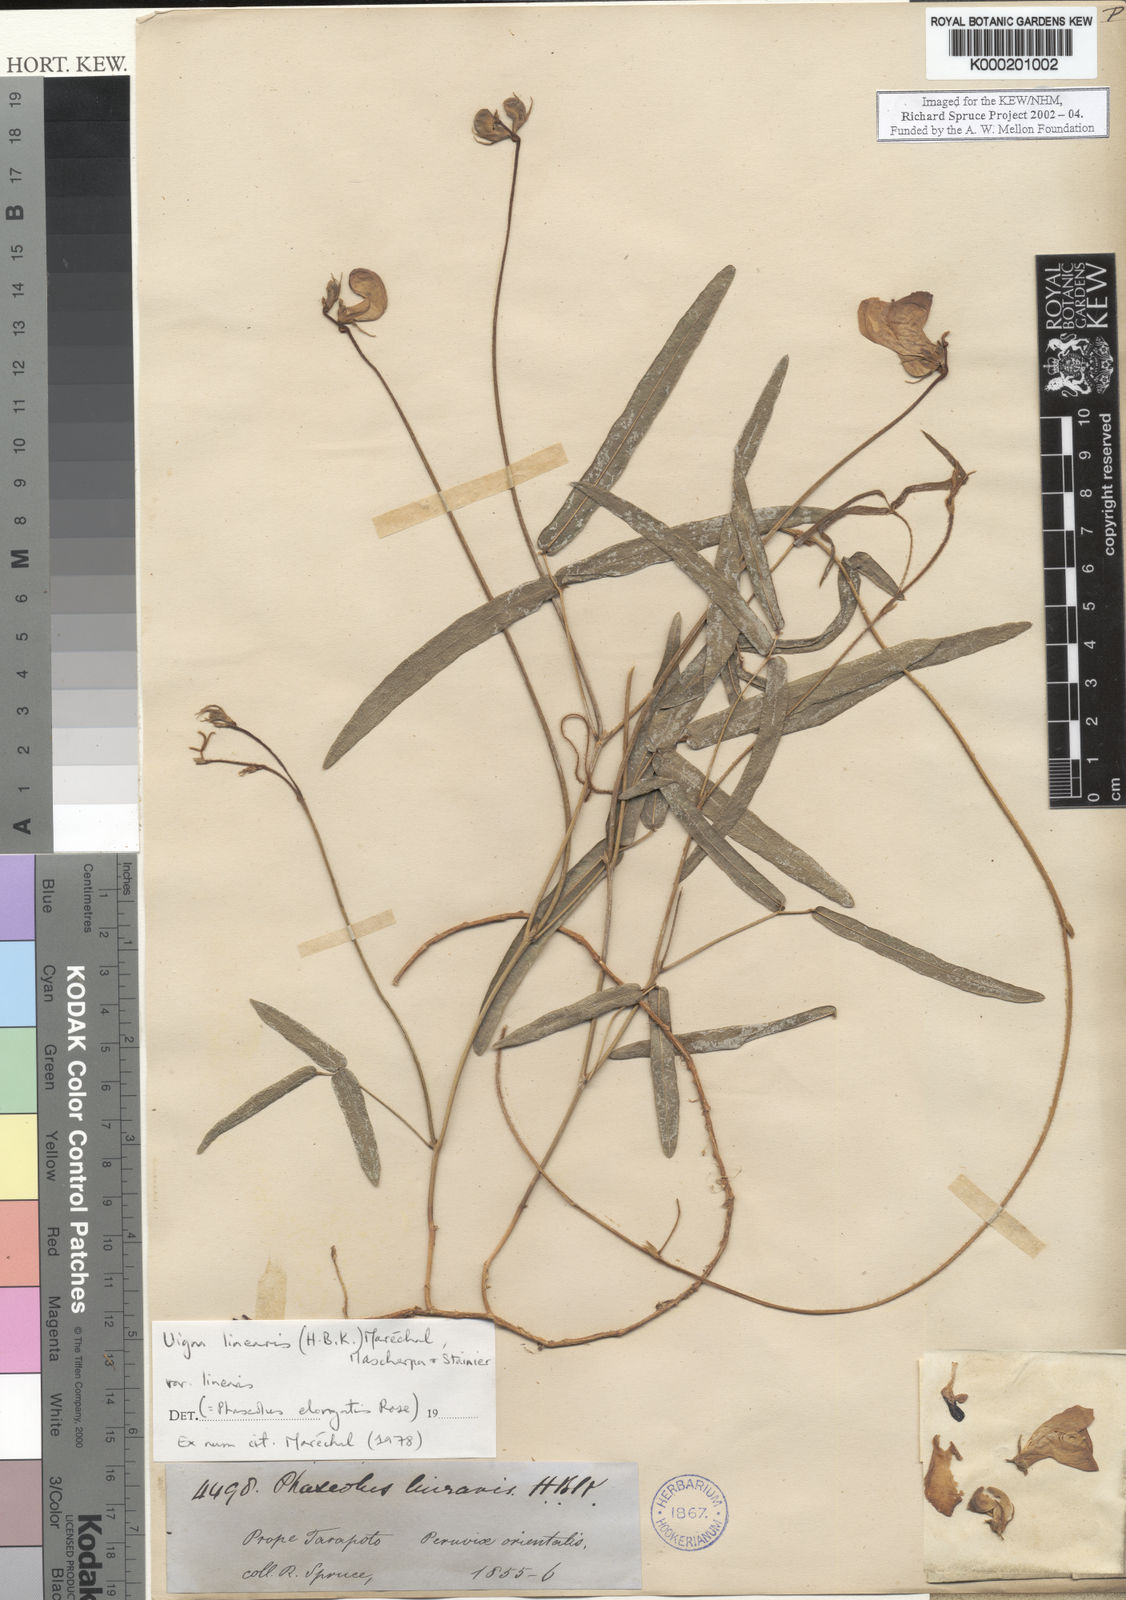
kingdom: Plantae
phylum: Tracheophyta
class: Magnoliopsida
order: Fabales
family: Fabaceae
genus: Vigna
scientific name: Vigna
